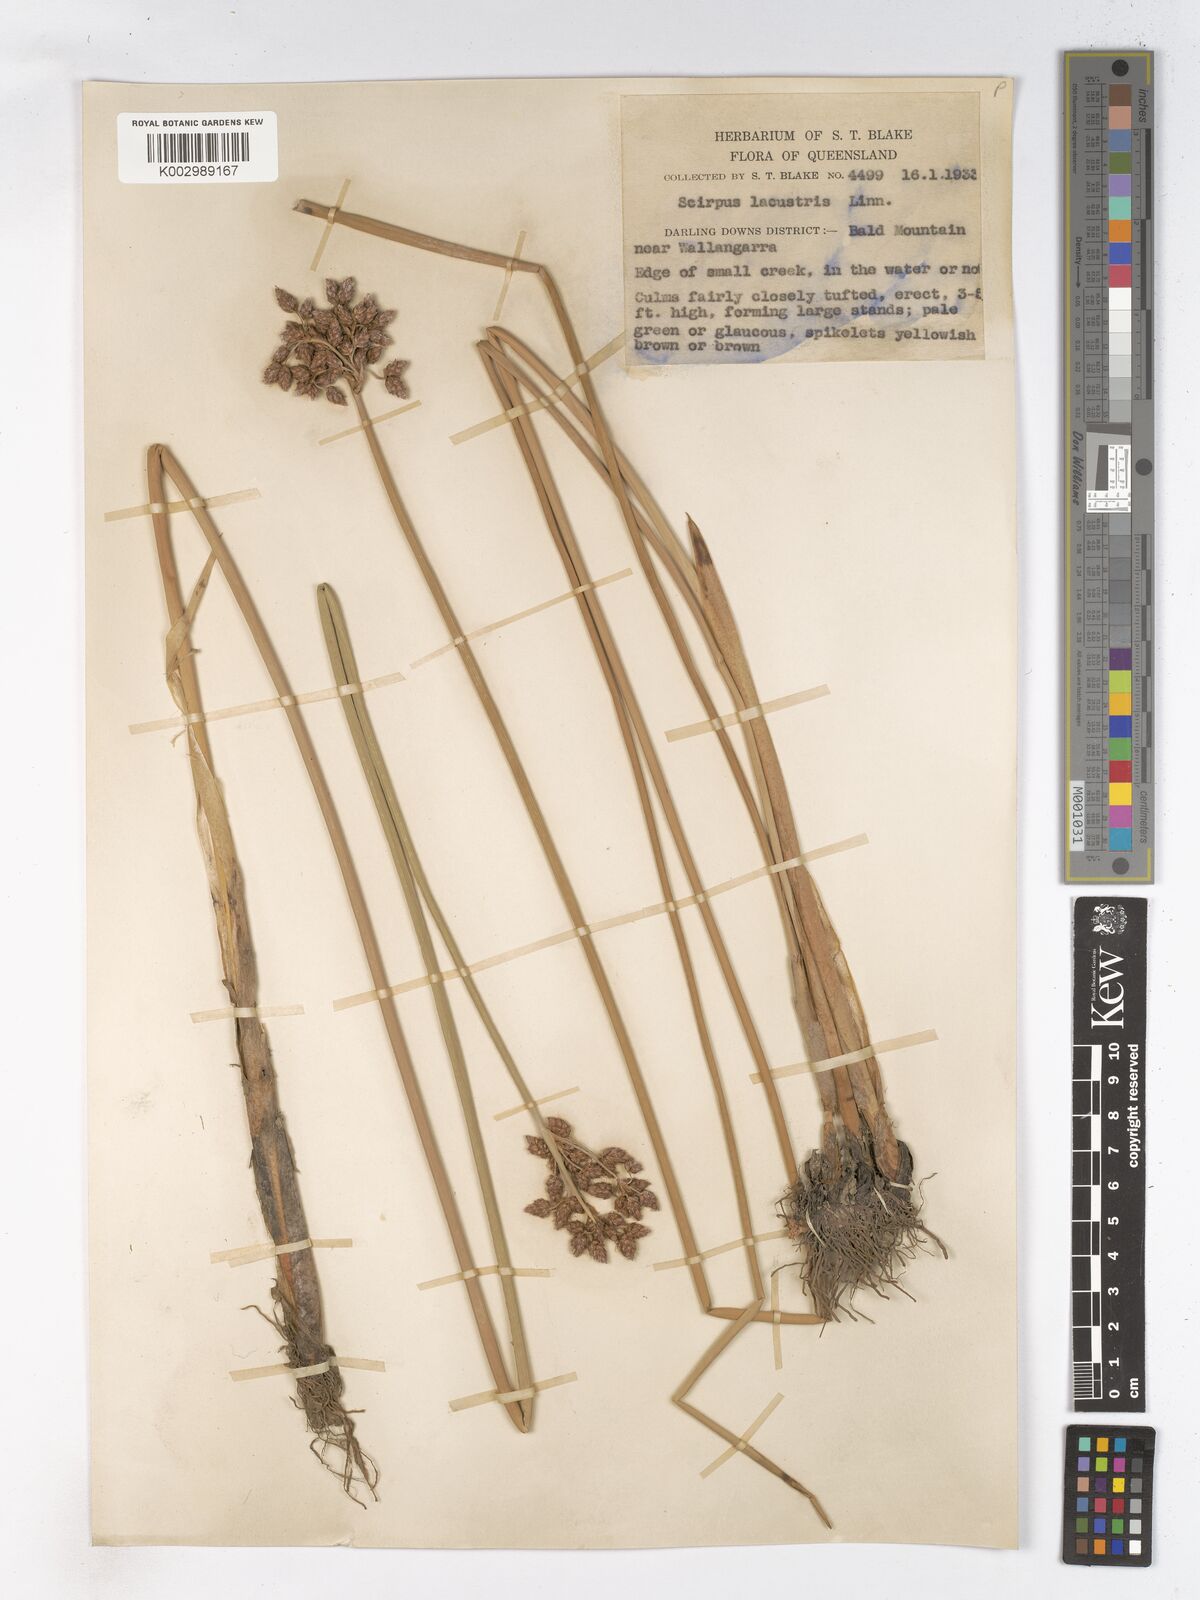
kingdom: Plantae
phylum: Tracheophyta
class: Liliopsida
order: Poales
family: Cyperaceae
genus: Schoenoplectus
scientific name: Schoenoplectus lacustris
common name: Common club-rush
